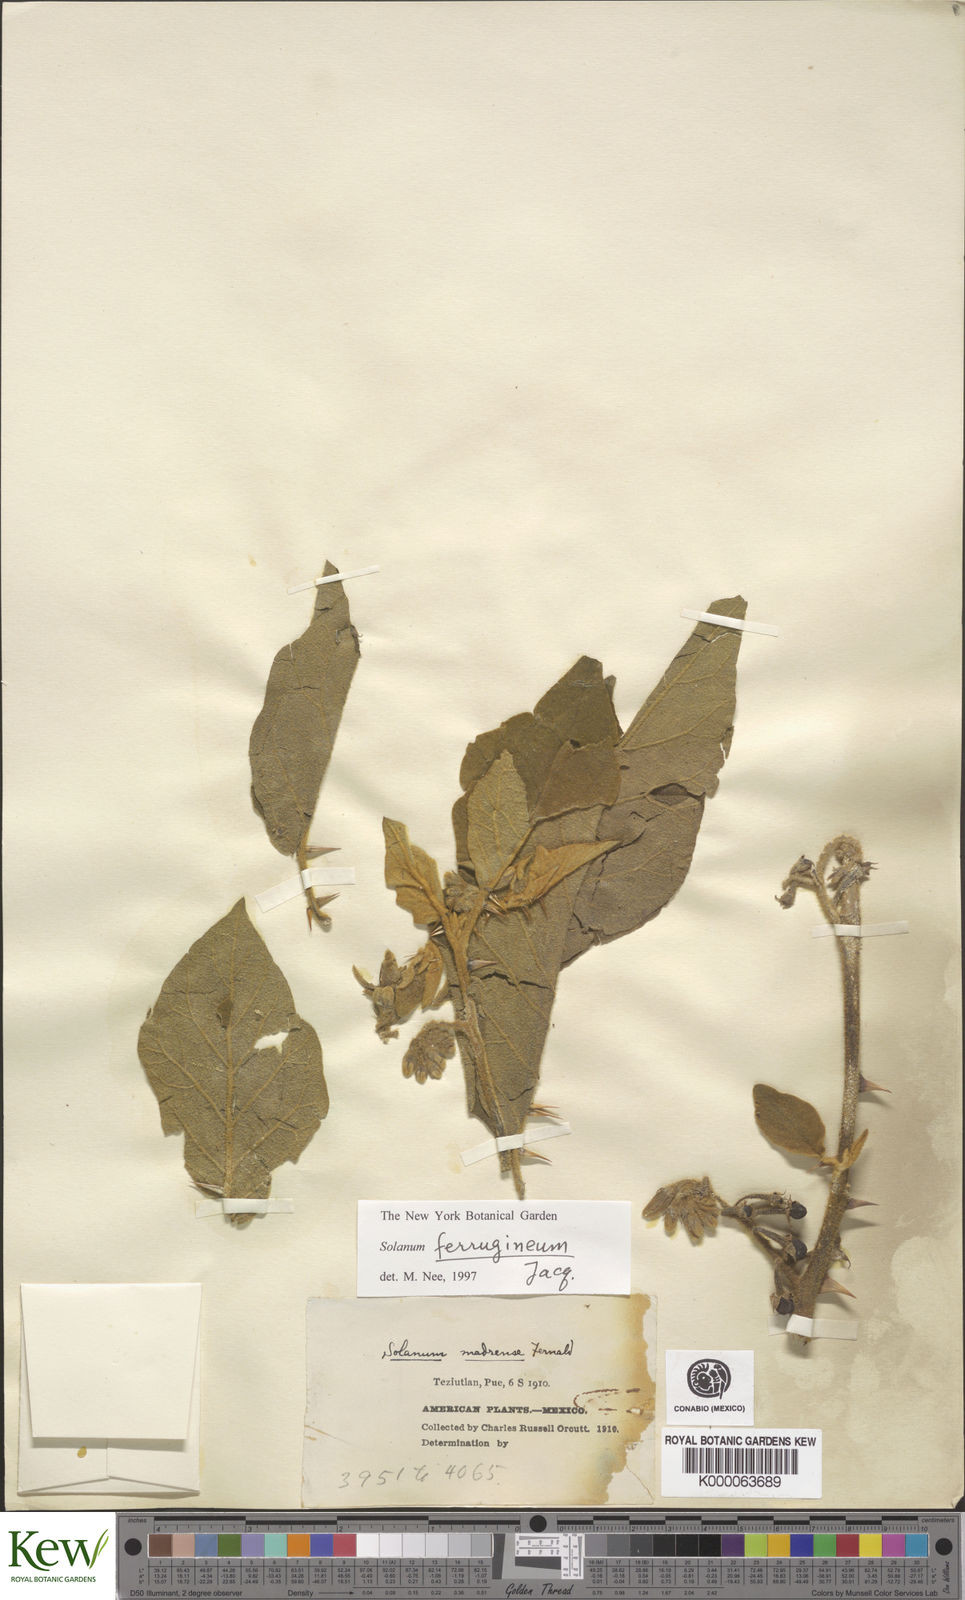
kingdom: Plantae
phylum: Tracheophyta
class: Magnoliopsida
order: Solanales
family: Solanaceae
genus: Solanum
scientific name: Solanum
